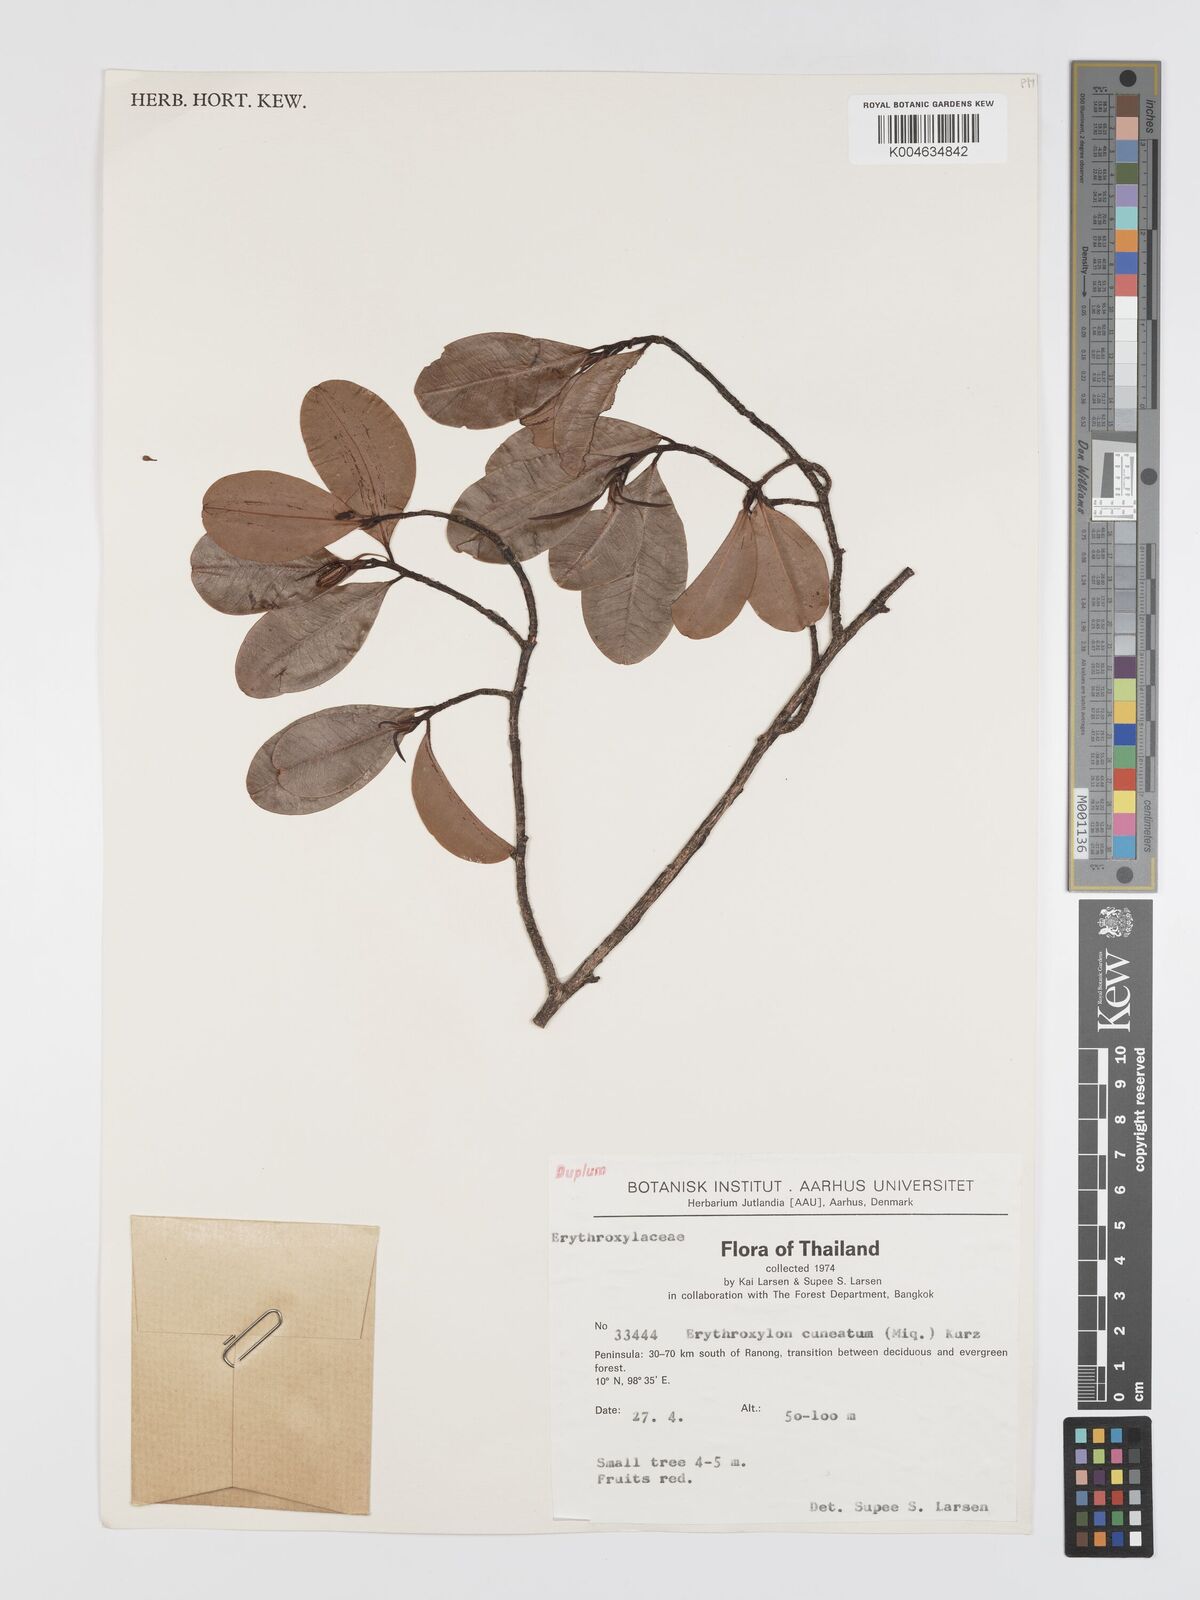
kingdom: Plantae
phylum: Tracheophyta
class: Magnoliopsida
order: Malpighiales
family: Erythroxylaceae
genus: Erythroxylum
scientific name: Erythroxylum cuneatum
